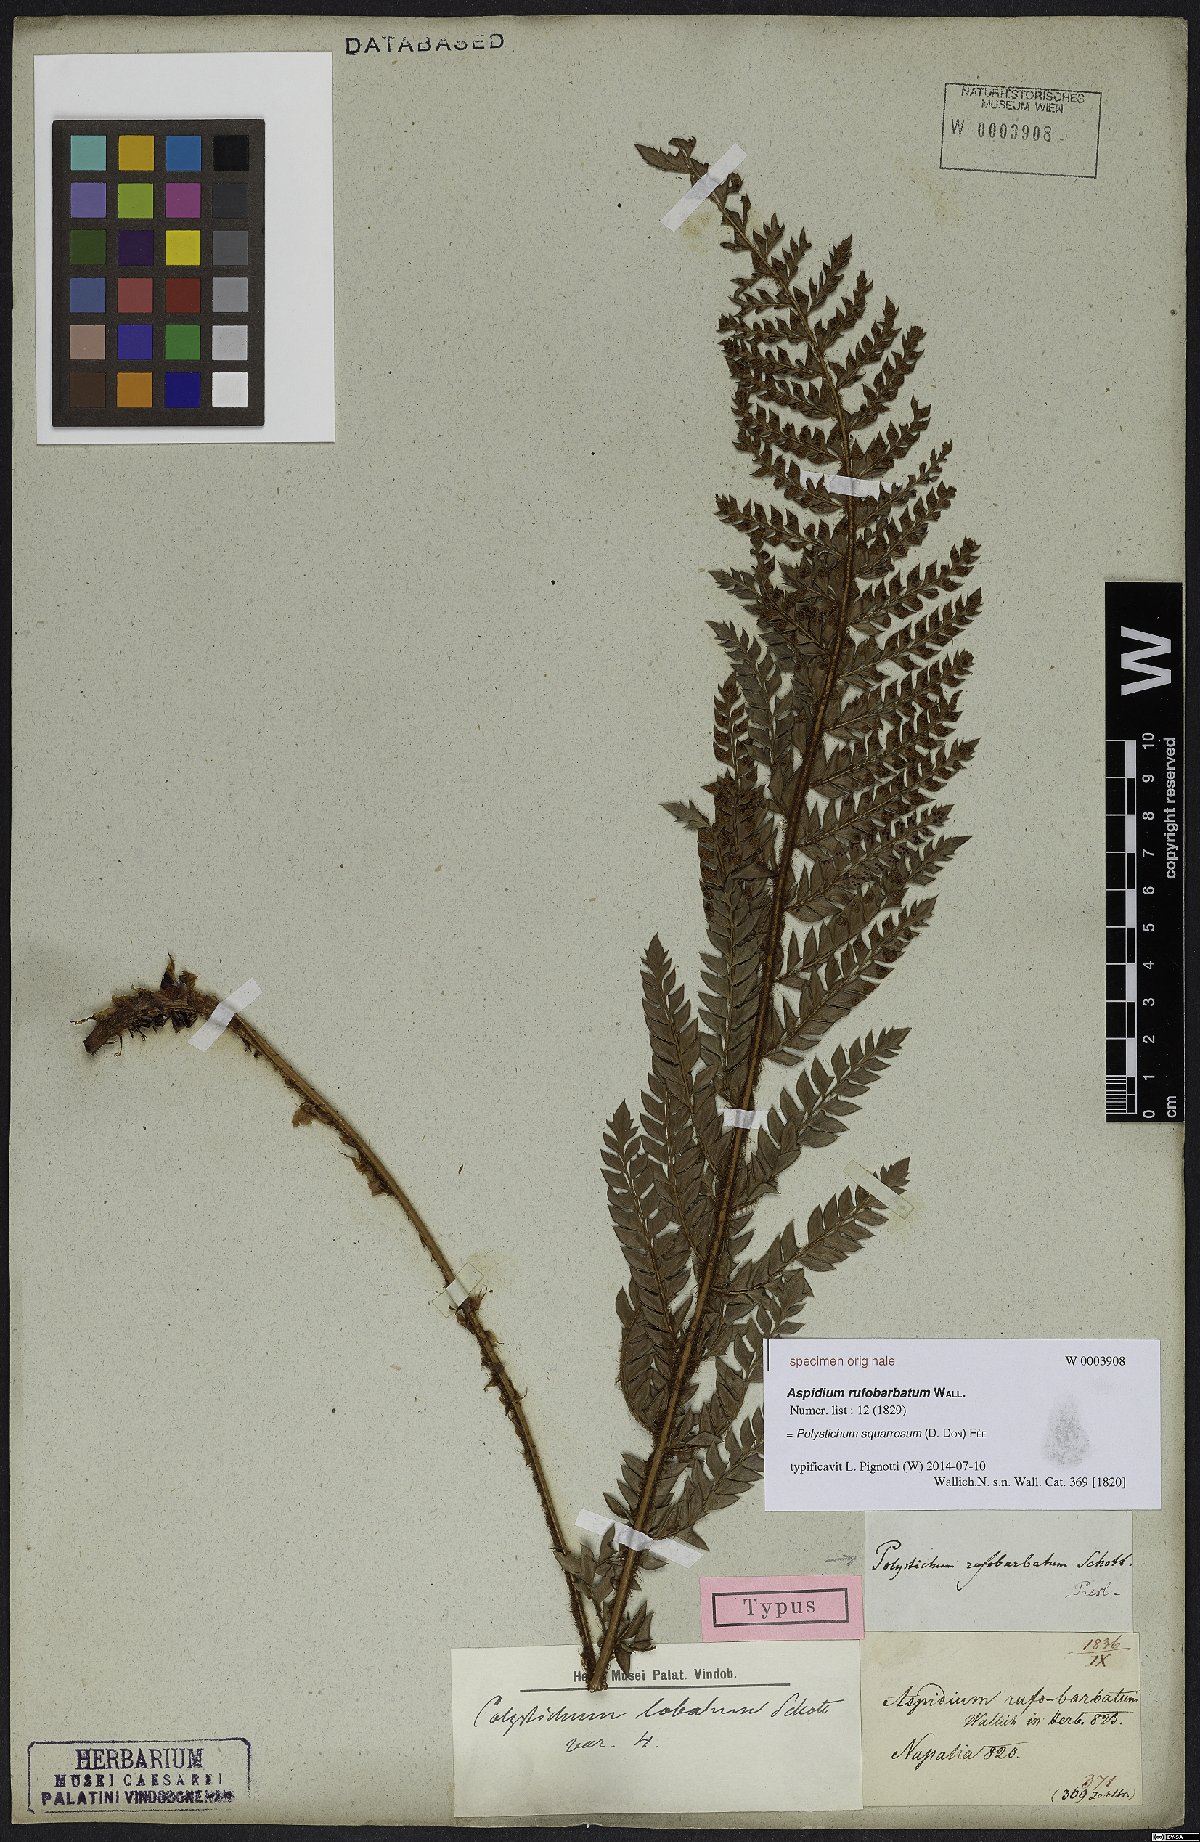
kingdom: Plantae
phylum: Tracheophyta
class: Polypodiopsida
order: Polypodiales
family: Dryopteridaceae
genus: Polystichum
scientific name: Polystichum squarrosum
